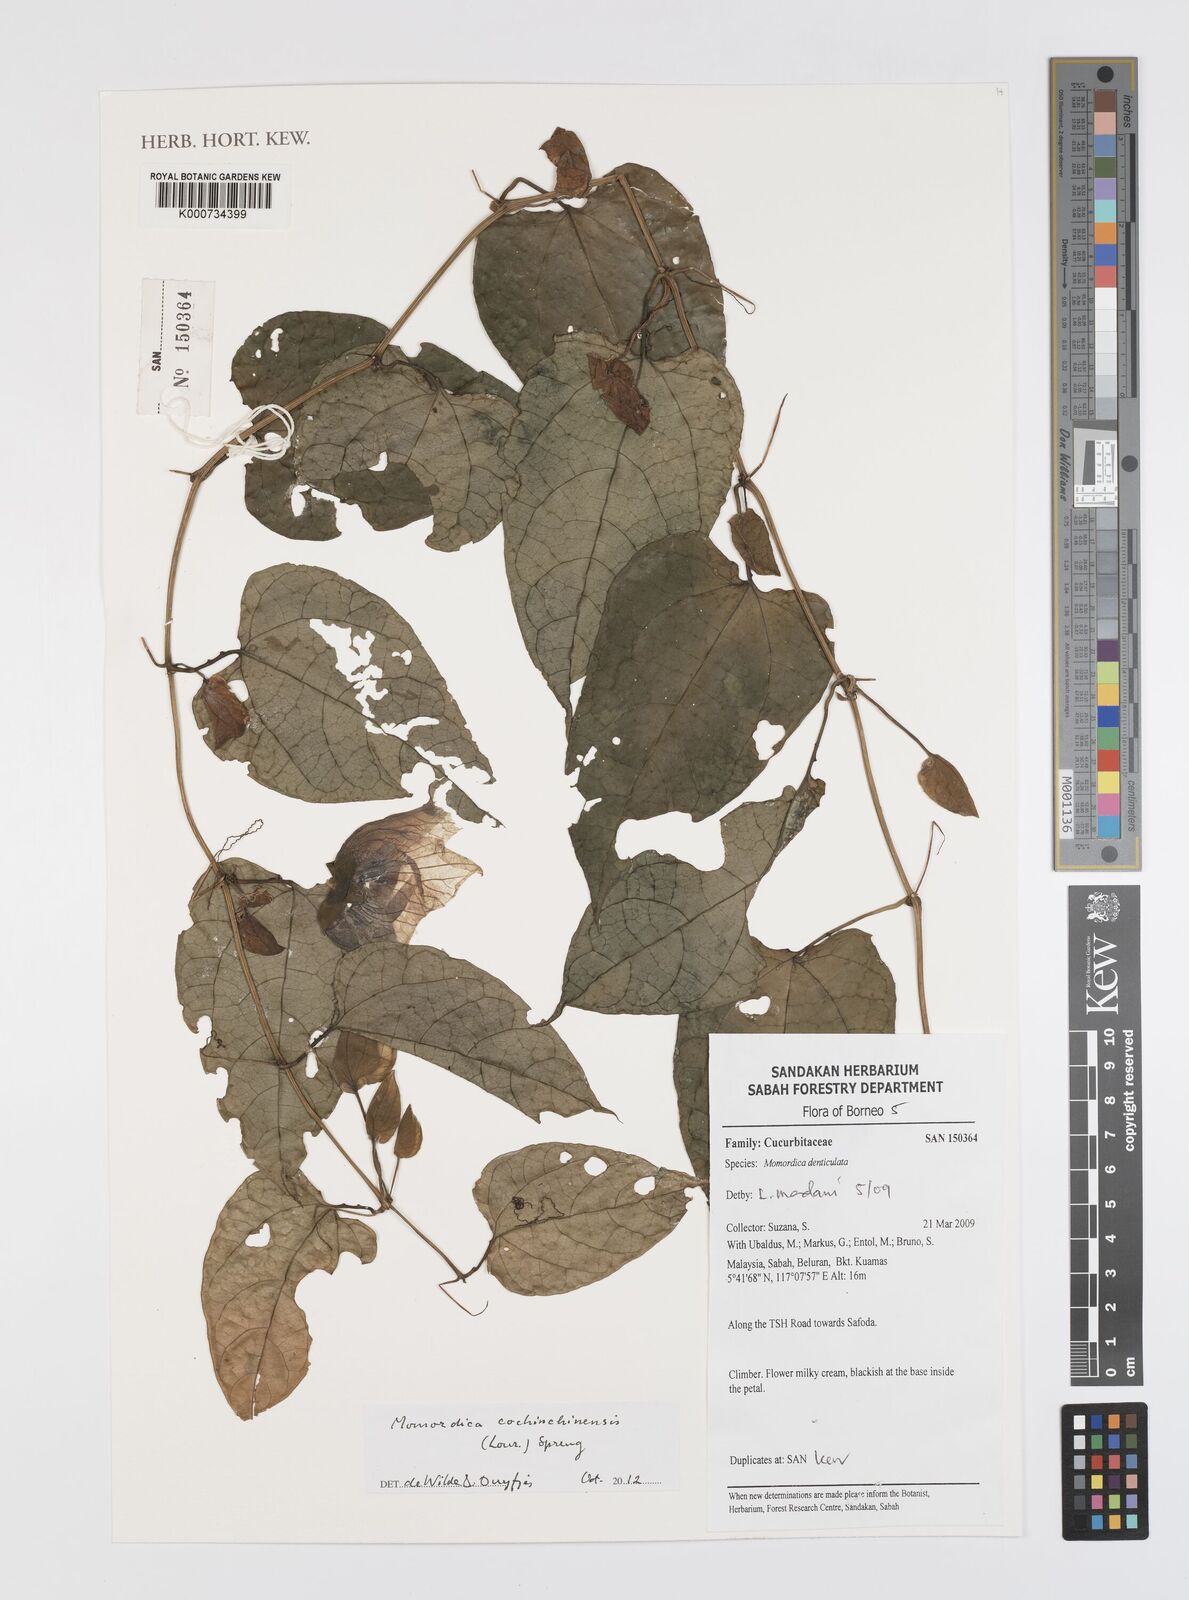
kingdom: Plantae
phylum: Tracheophyta
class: Magnoliopsida
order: Cucurbitales
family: Cucurbitaceae
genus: Momordica
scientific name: Momordica cochinchinensis
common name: Chinese bitter-cucumber
